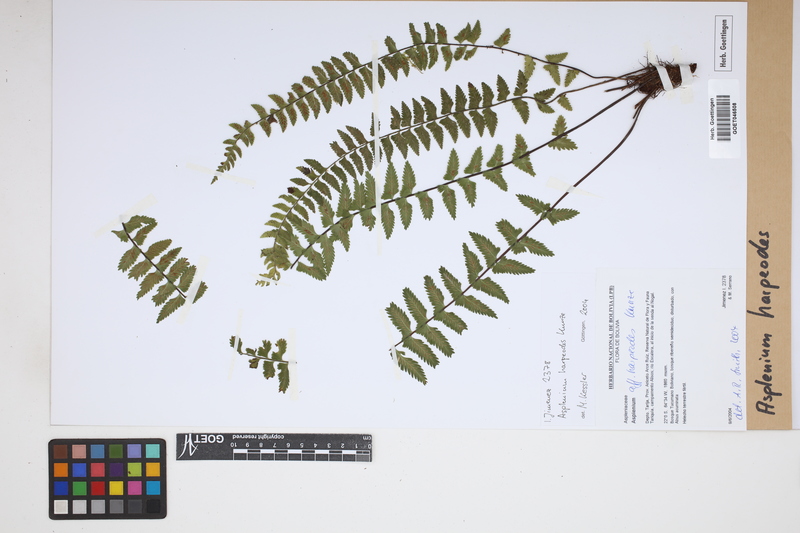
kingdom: Plantae
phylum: Tracheophyta
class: Polypodiopsida
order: Polypodiales
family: Aspleniaceae
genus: Asplenium
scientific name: Asplenium harpeodes
